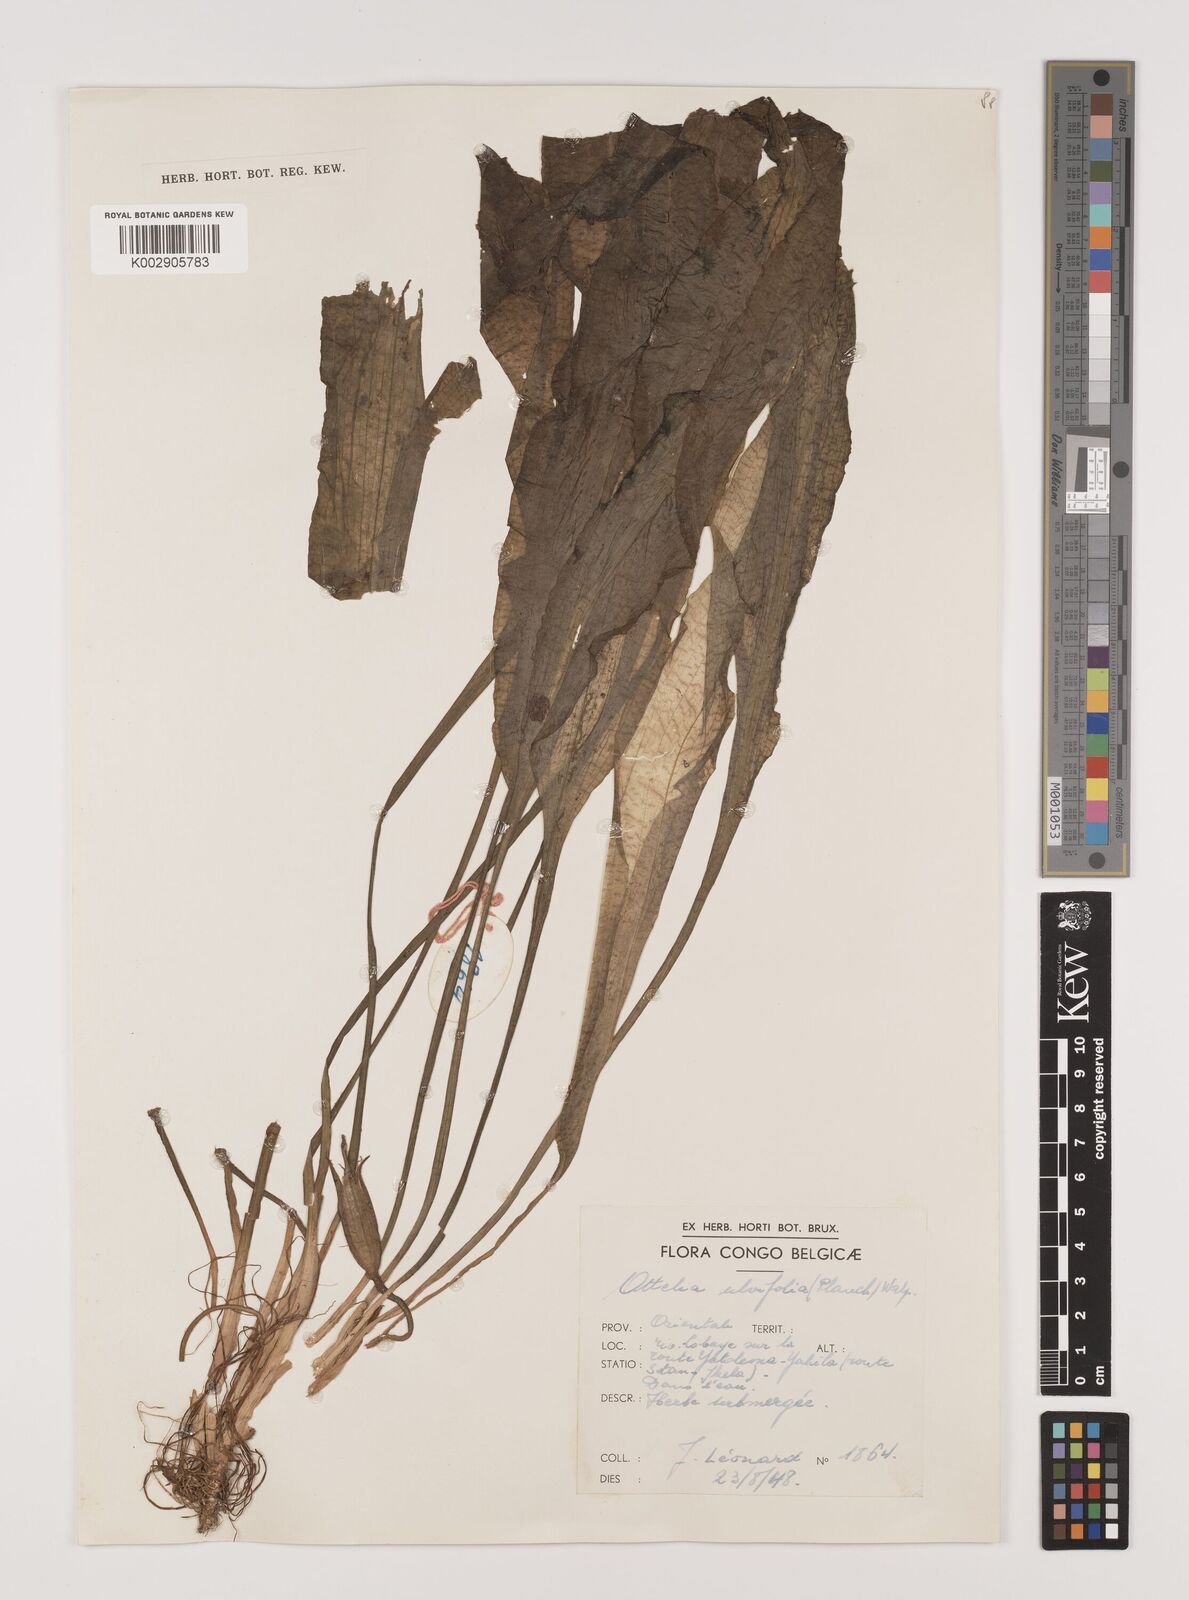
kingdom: Plantae
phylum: Tracheophyta
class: Liliopsida
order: Alismatales
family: Hydrocharitaceae
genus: Ottelia
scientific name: Ottelia ulvifolia
